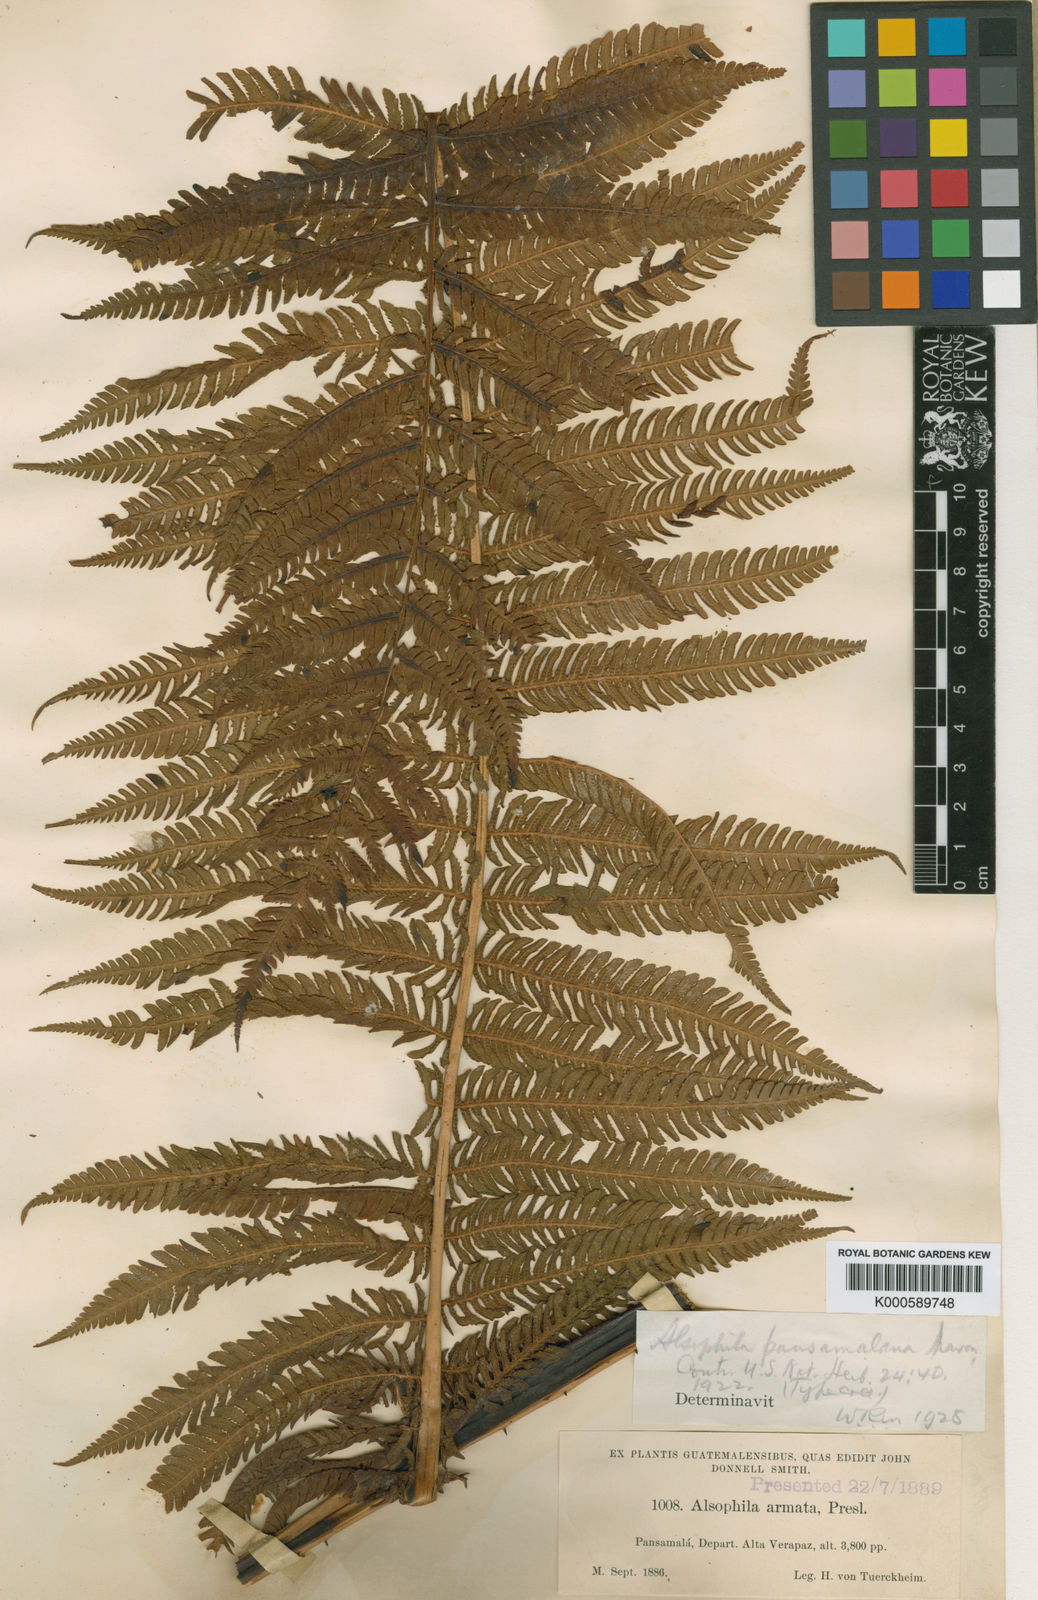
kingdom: Plantae
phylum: Tracheophyta
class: Polypodiopsida
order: Cyatheales
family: Cyatheaceae
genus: Cyathea
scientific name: Cyathea bicrenata
